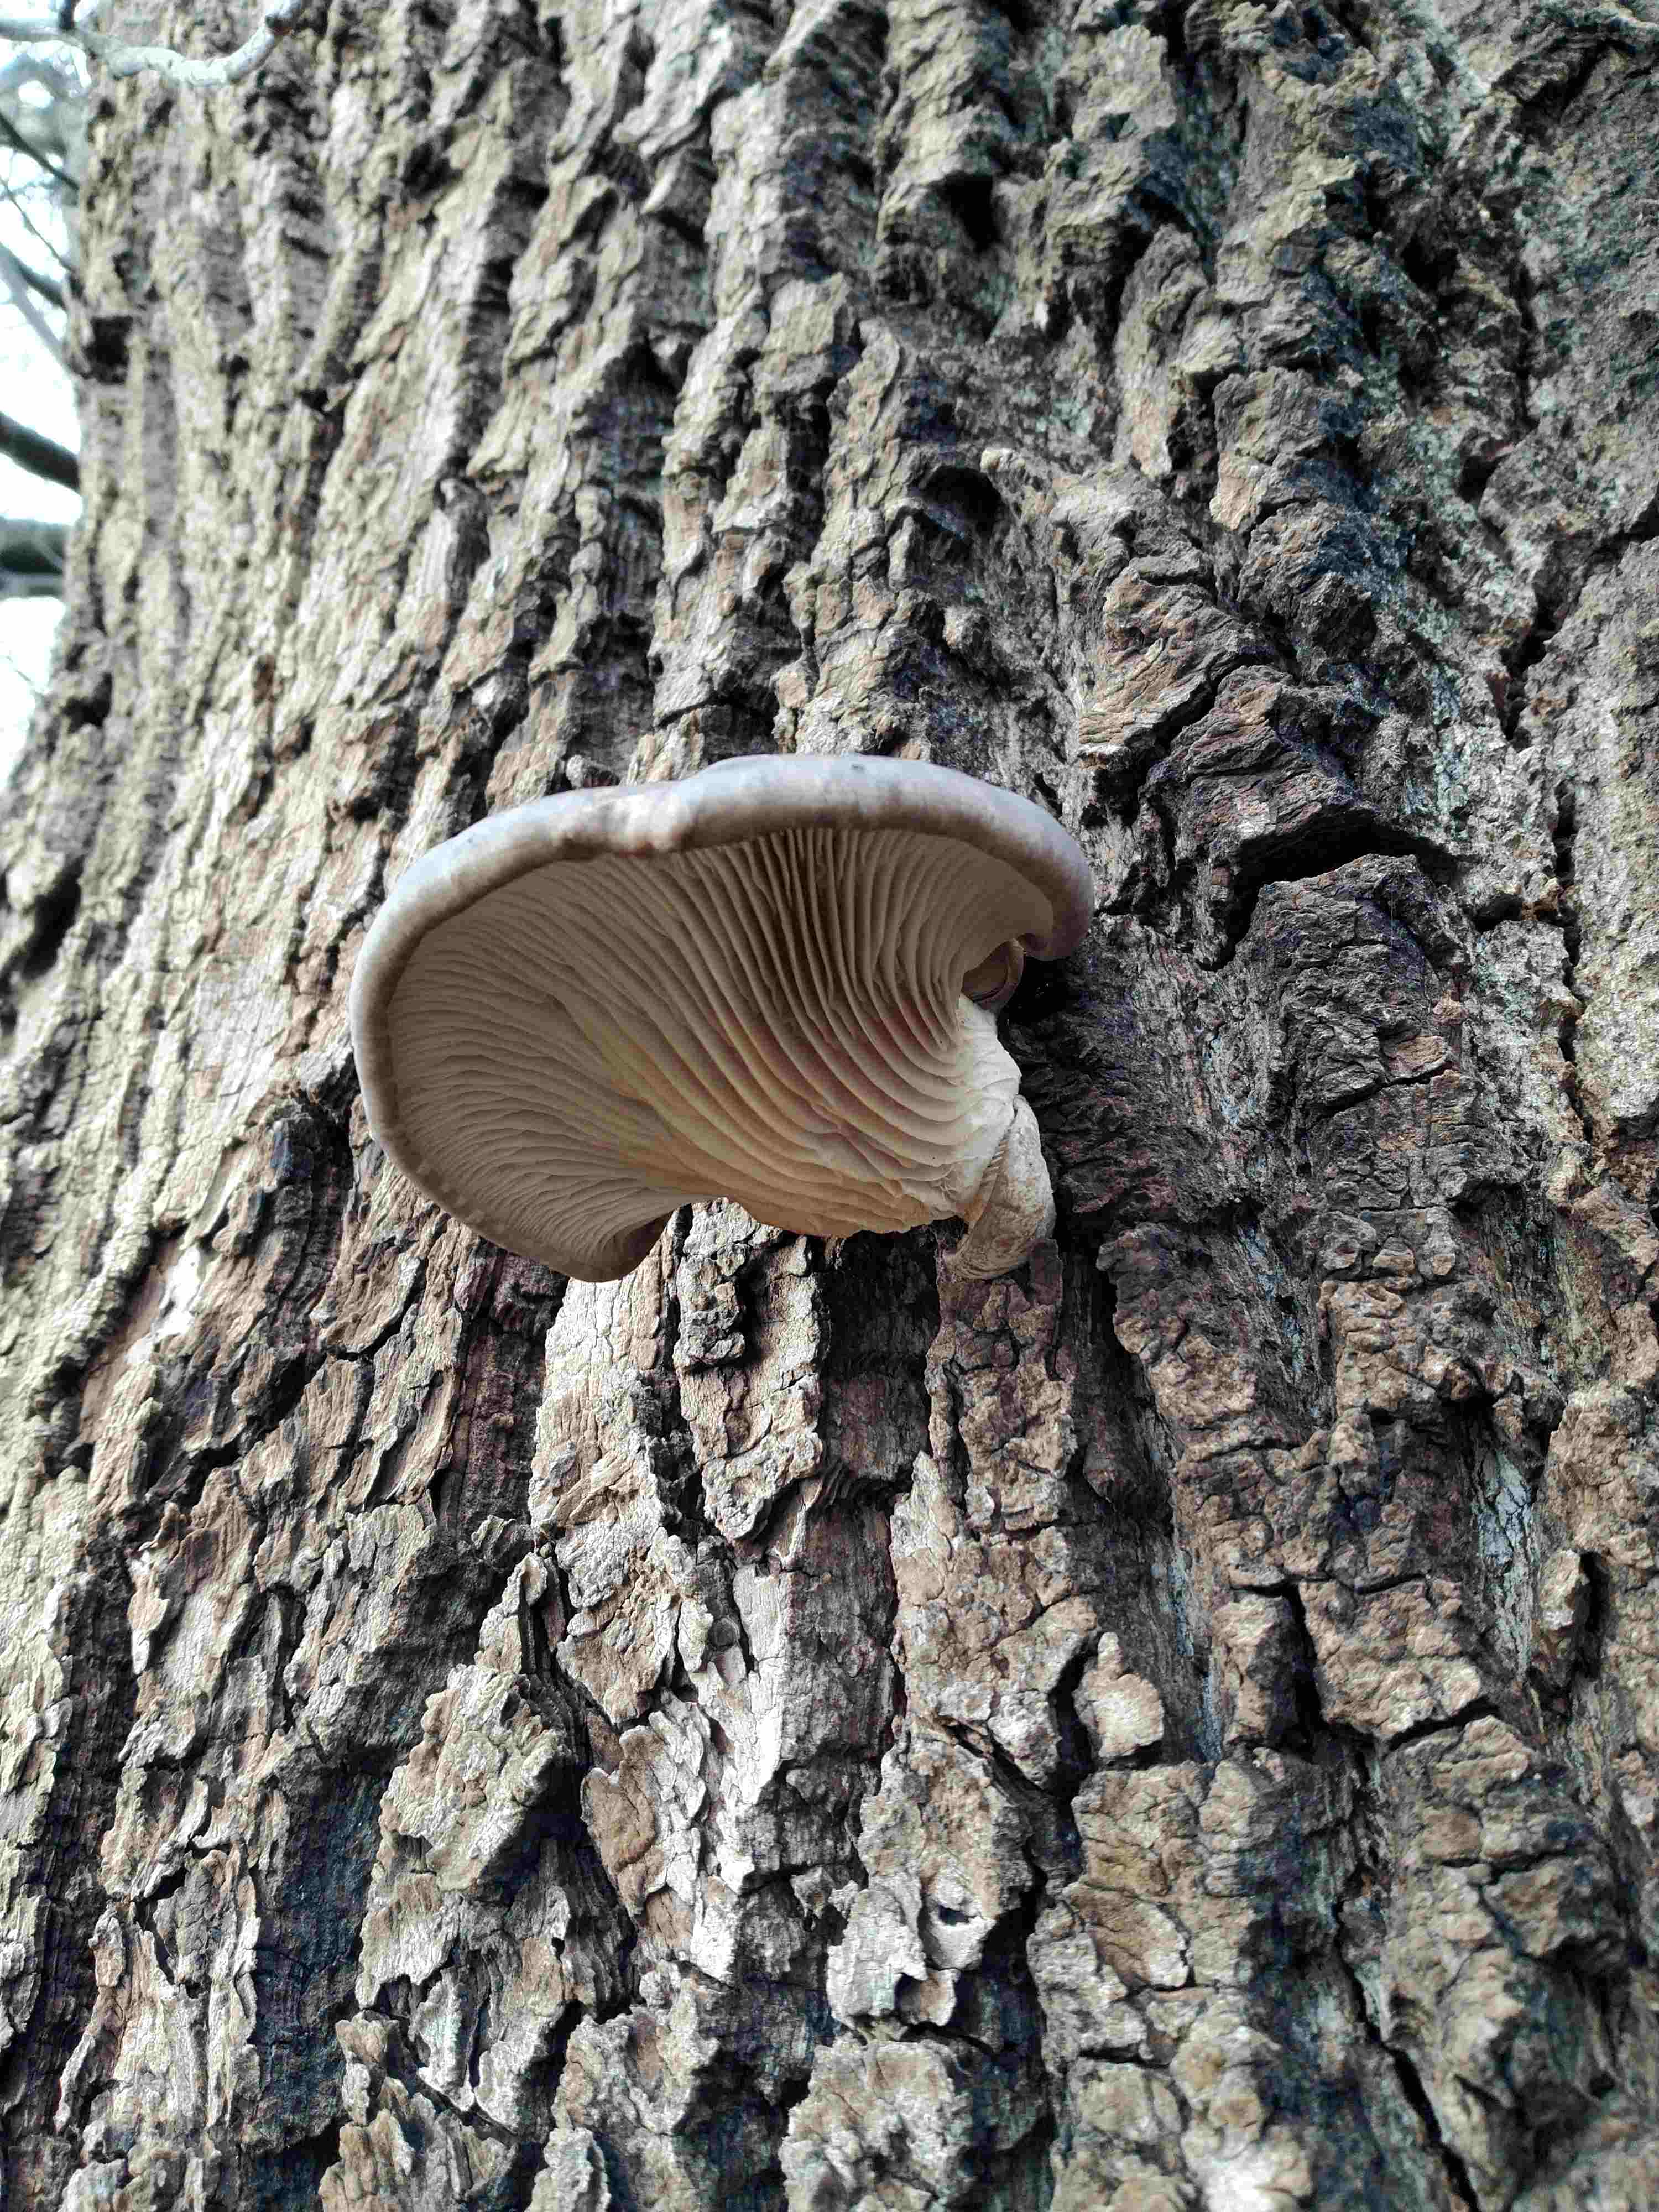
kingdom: Fungi
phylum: Basidiomycota
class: Agaricomycetes
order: Agaricales
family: Pleurotaceae
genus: Pleurotus
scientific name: Pleurotus ostreatus
